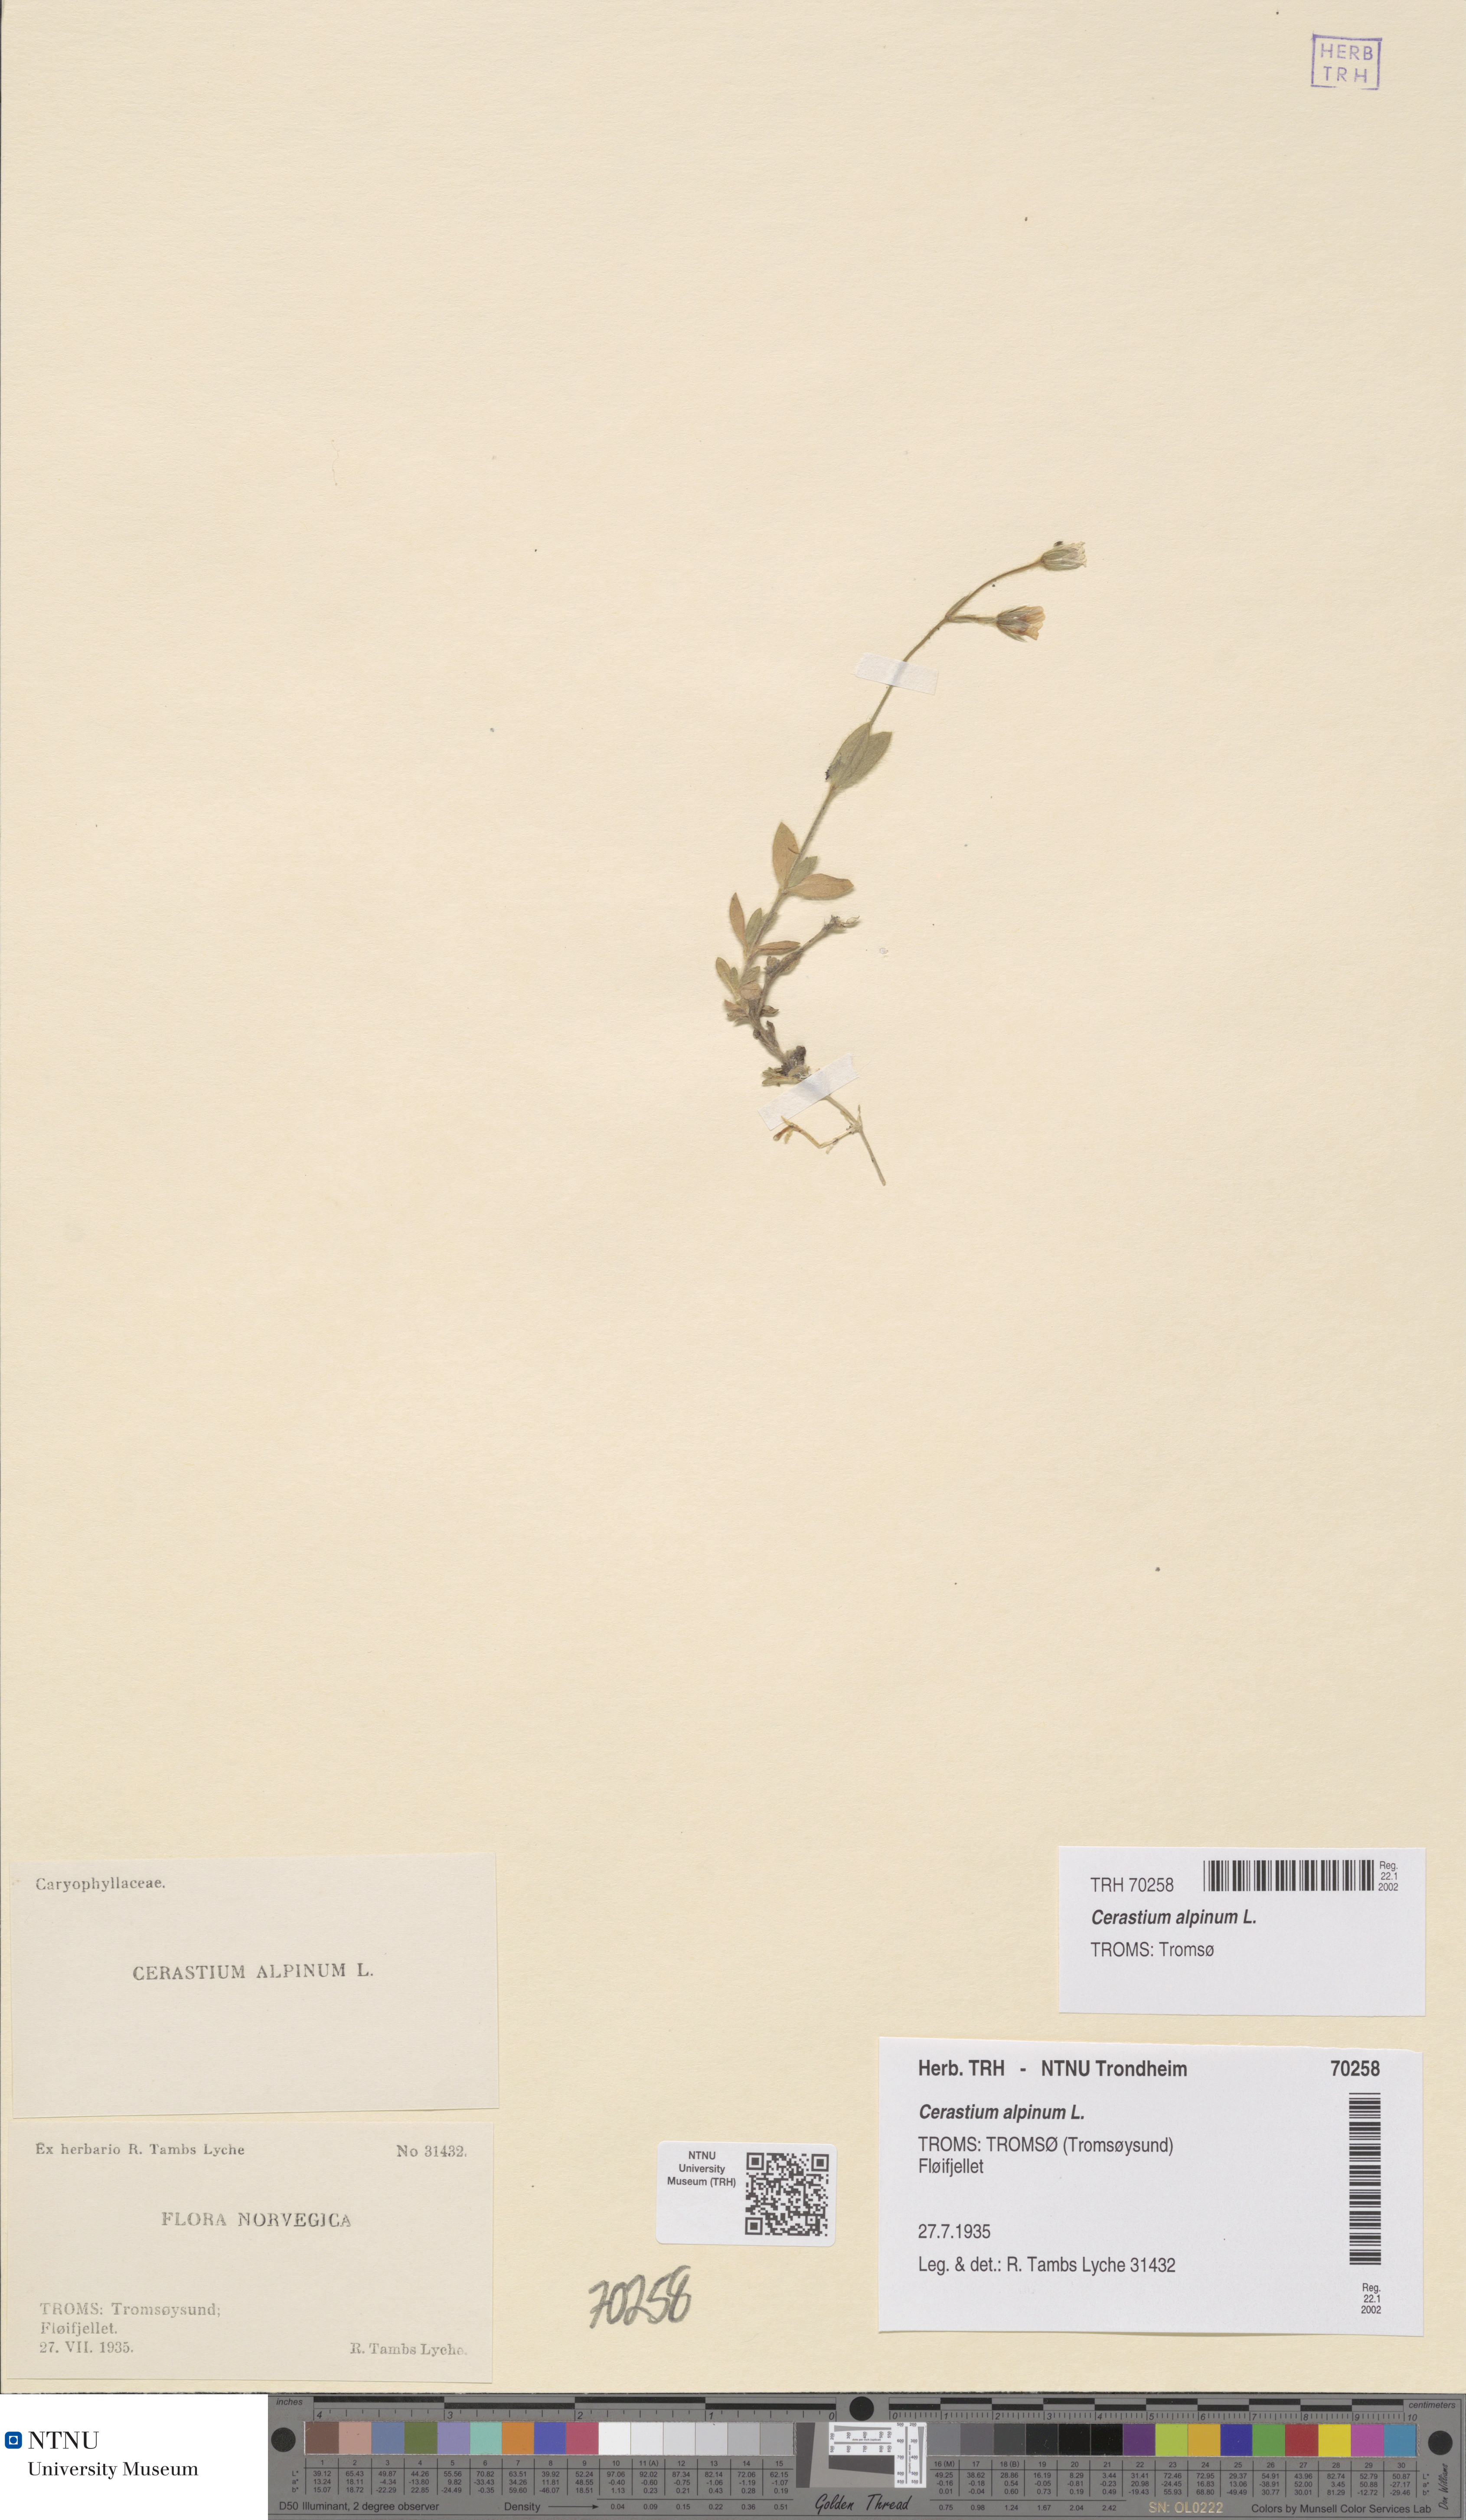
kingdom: Plantae
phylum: Tracheophyta
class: Magnoliopsida
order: Caryophyllales
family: Caryophyllaceae
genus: Cerastium
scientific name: Cerastium alpinum
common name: Alpine mouse-ear
